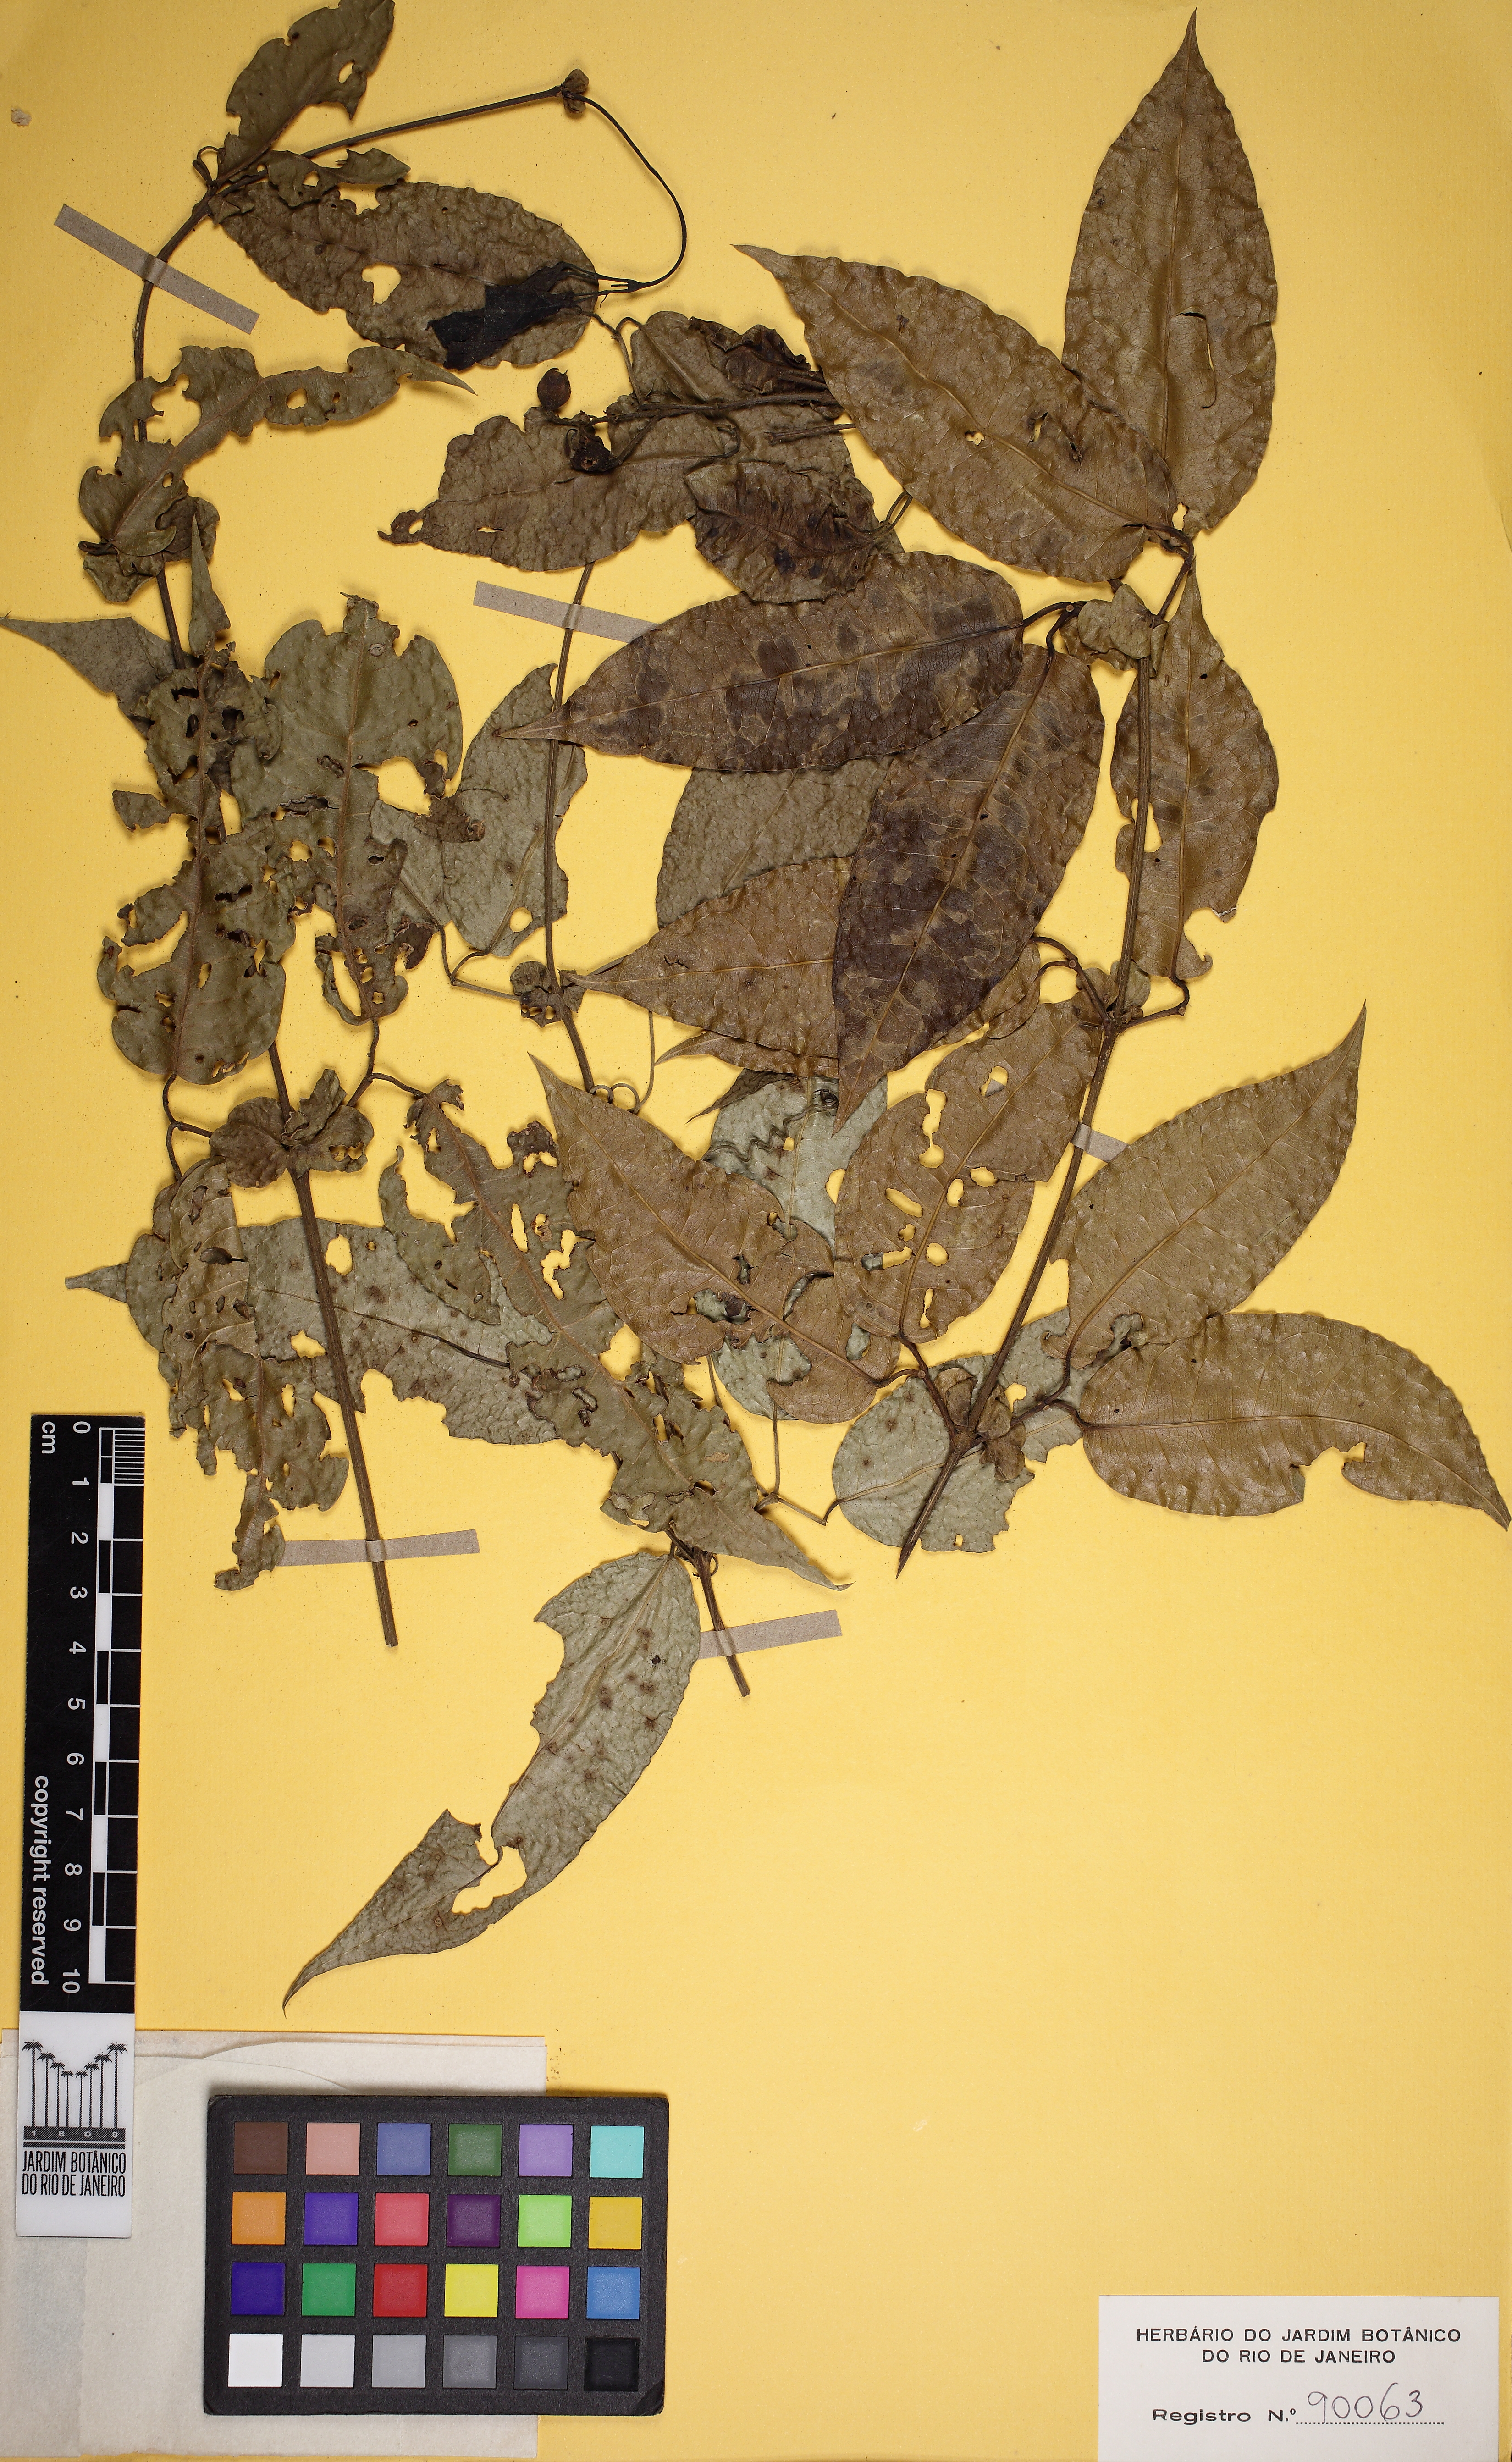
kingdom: Plantae
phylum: Tracheophyta
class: Magnoliopsida
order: Lamiales
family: Bignoniaceae
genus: Bignonia
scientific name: Bignonia campanulata
